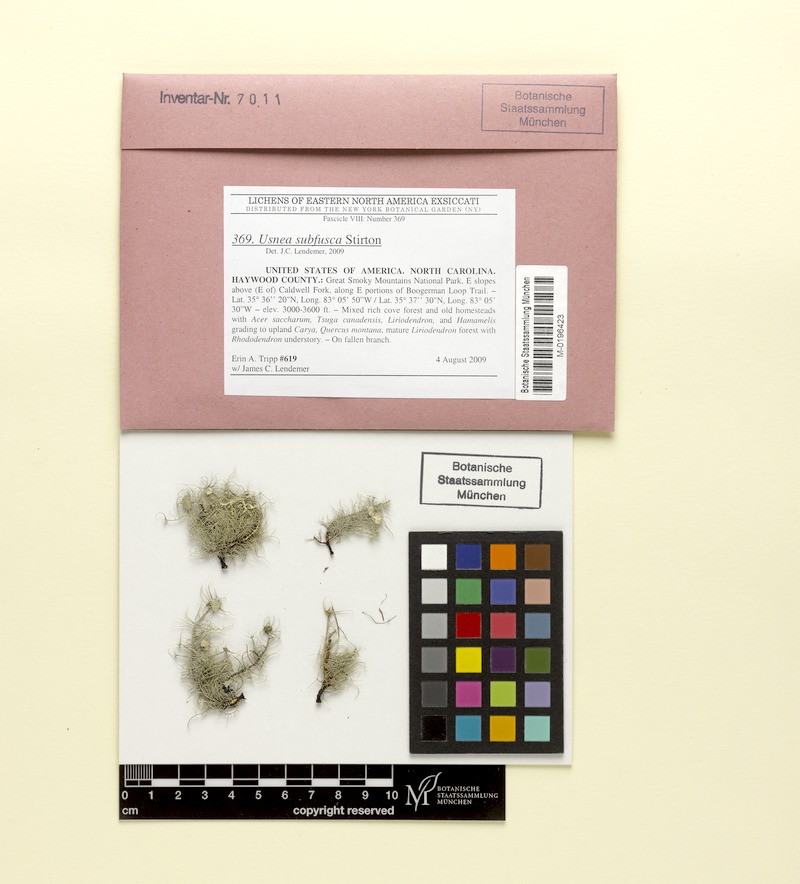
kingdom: Fungi
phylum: Ascomycota
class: Lecanoromycetes
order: Lecanorales
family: Parmeliaceae
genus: Usnea
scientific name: Usnea subfusca
